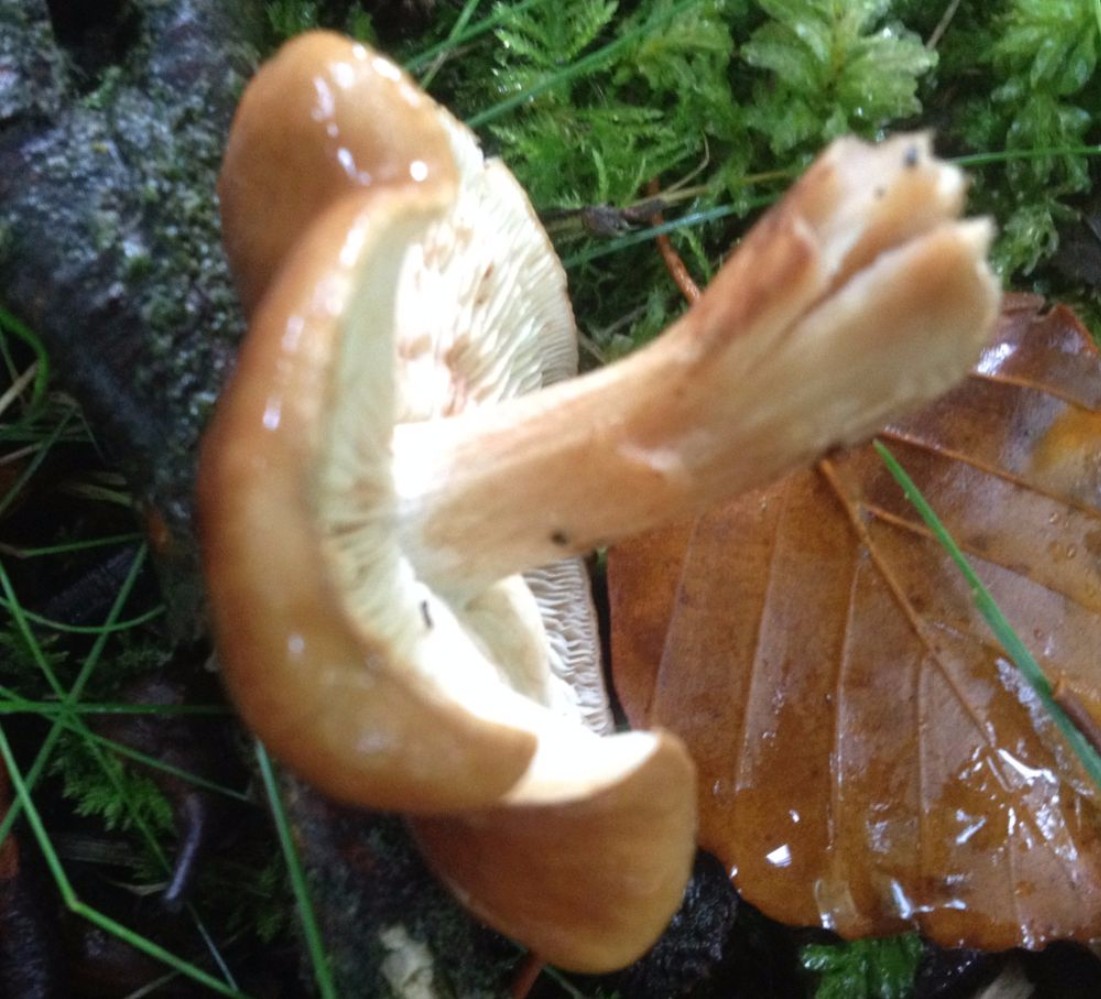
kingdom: Fungi
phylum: Basidiomycota
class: Agaricomycetes
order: Agaricales
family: Tricholomataceae
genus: Tricholoma
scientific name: Tricholoma ustale
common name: sveden ridderhat
